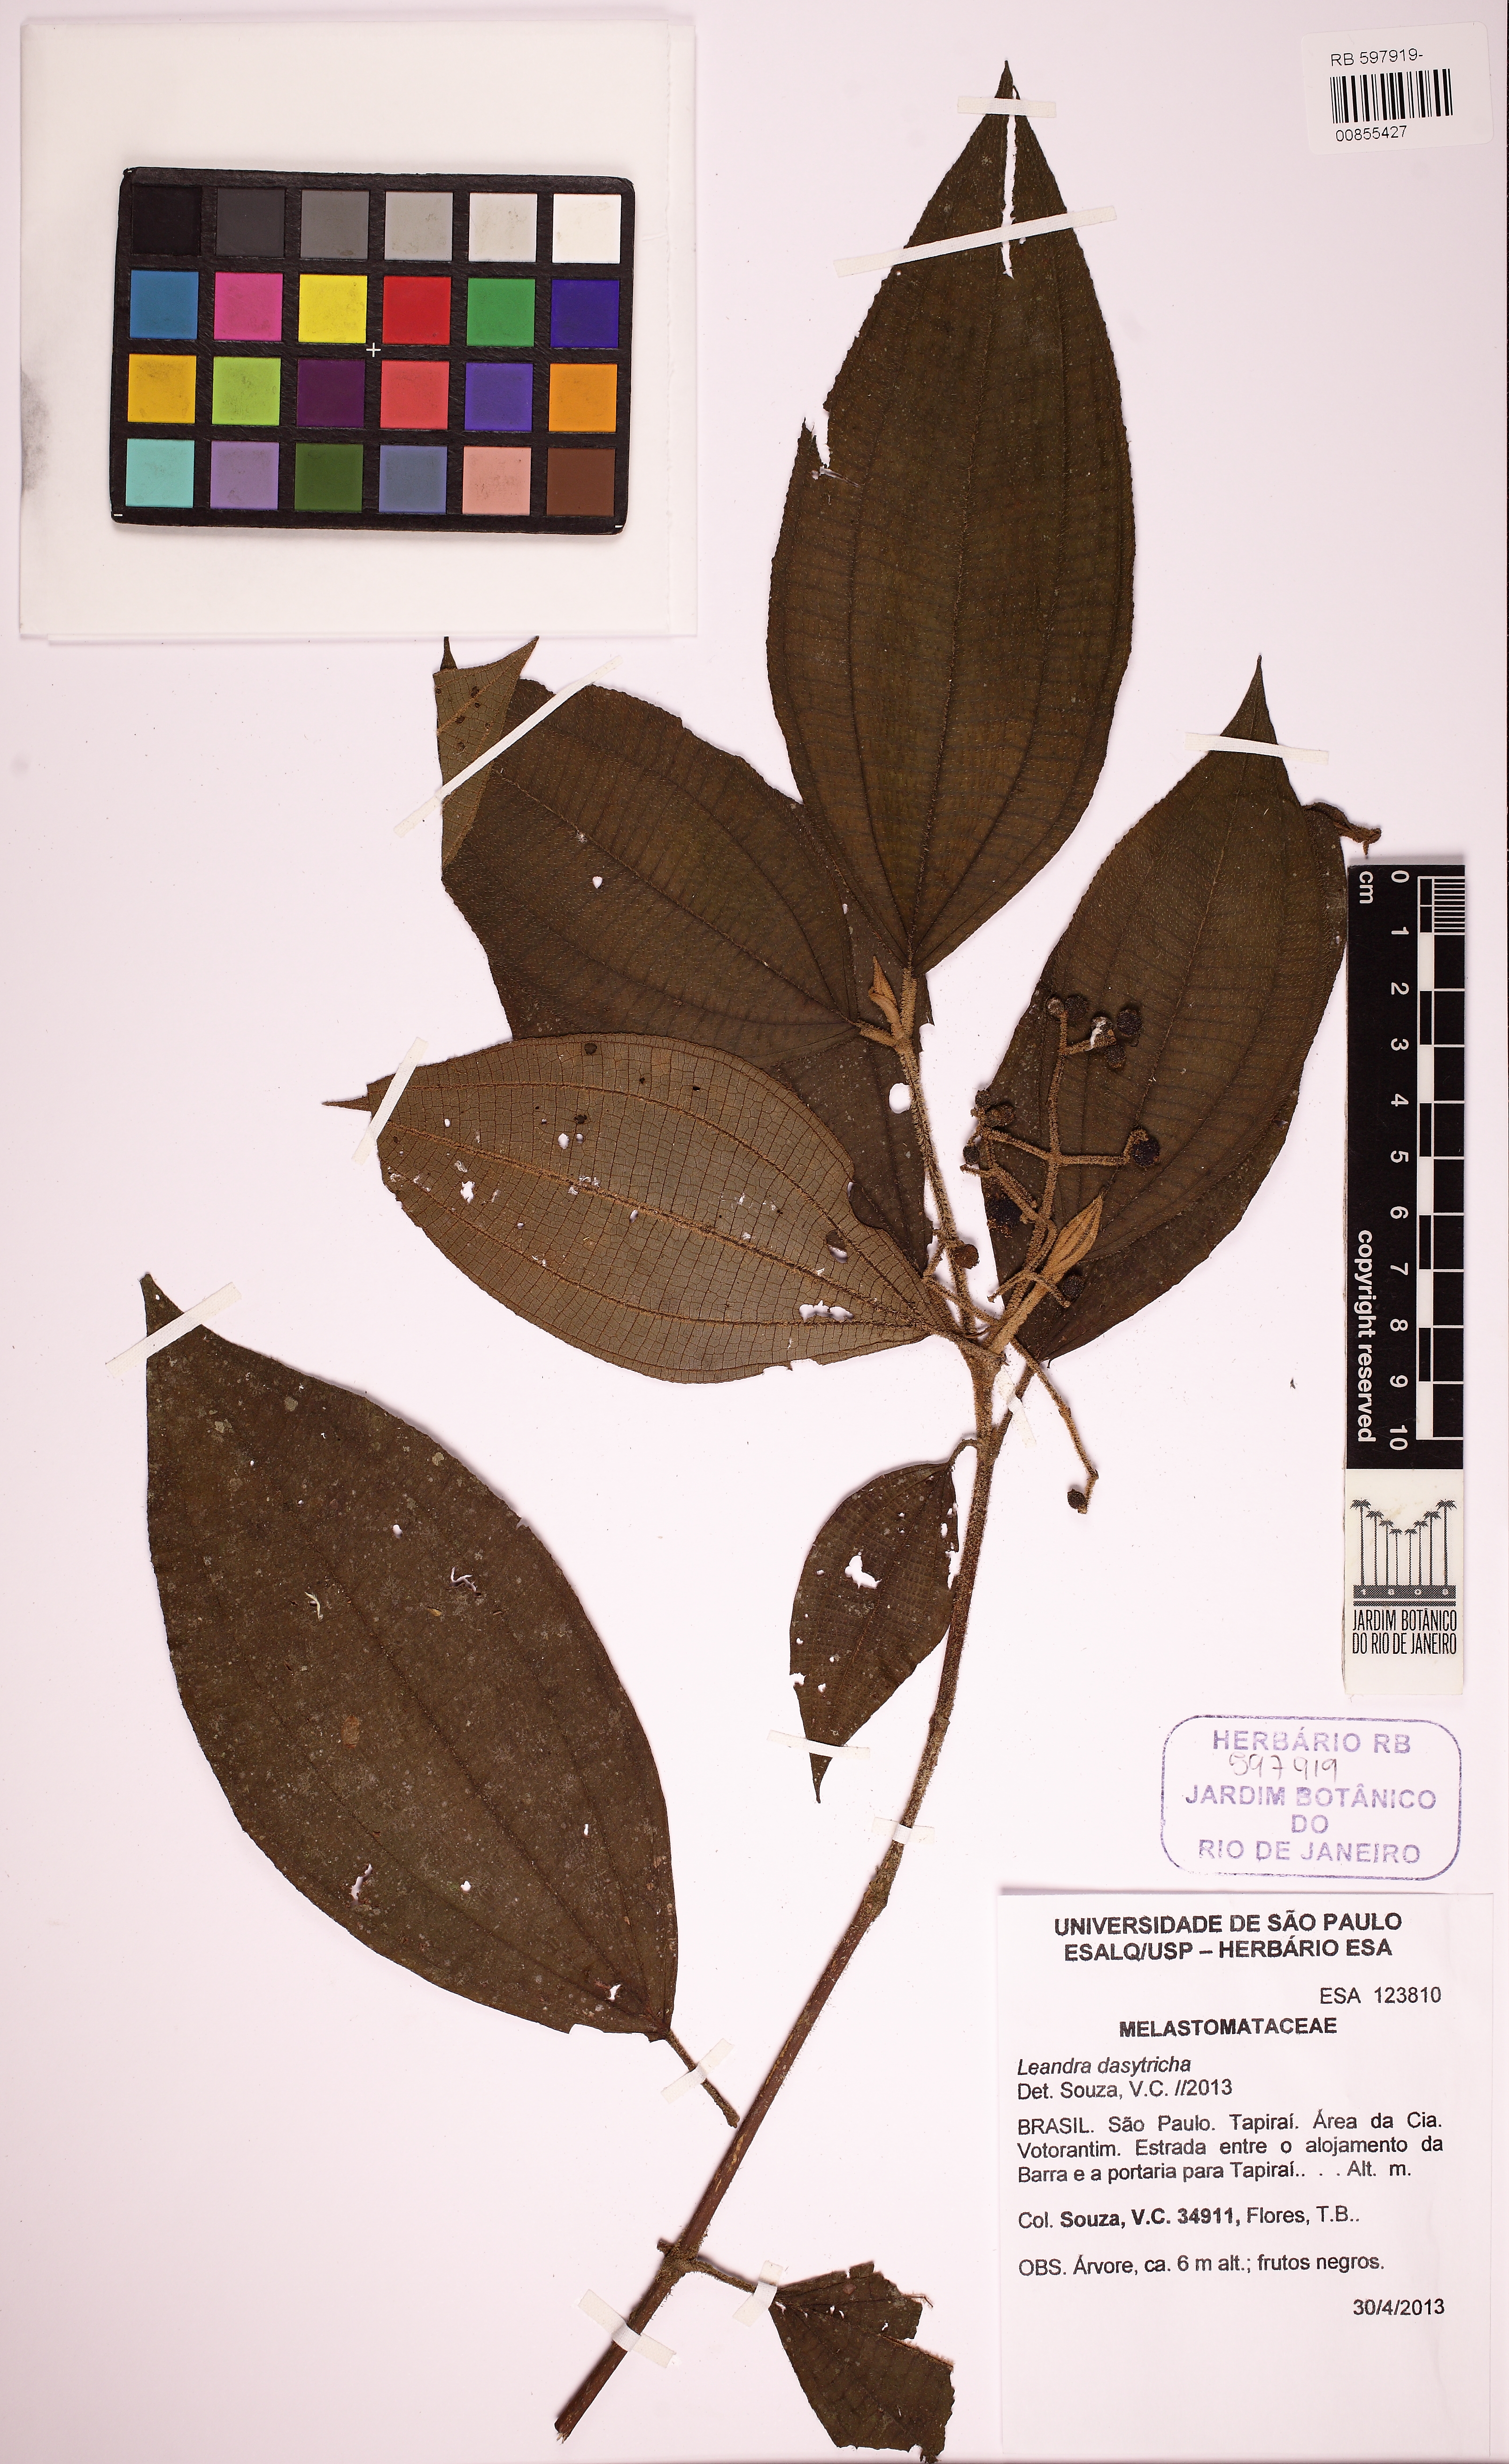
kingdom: Plantae
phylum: Tracheophyta
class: Magnoliopsida
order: Myrtales
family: Melastomataceae
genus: Miconia
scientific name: Miconia dasytricha
